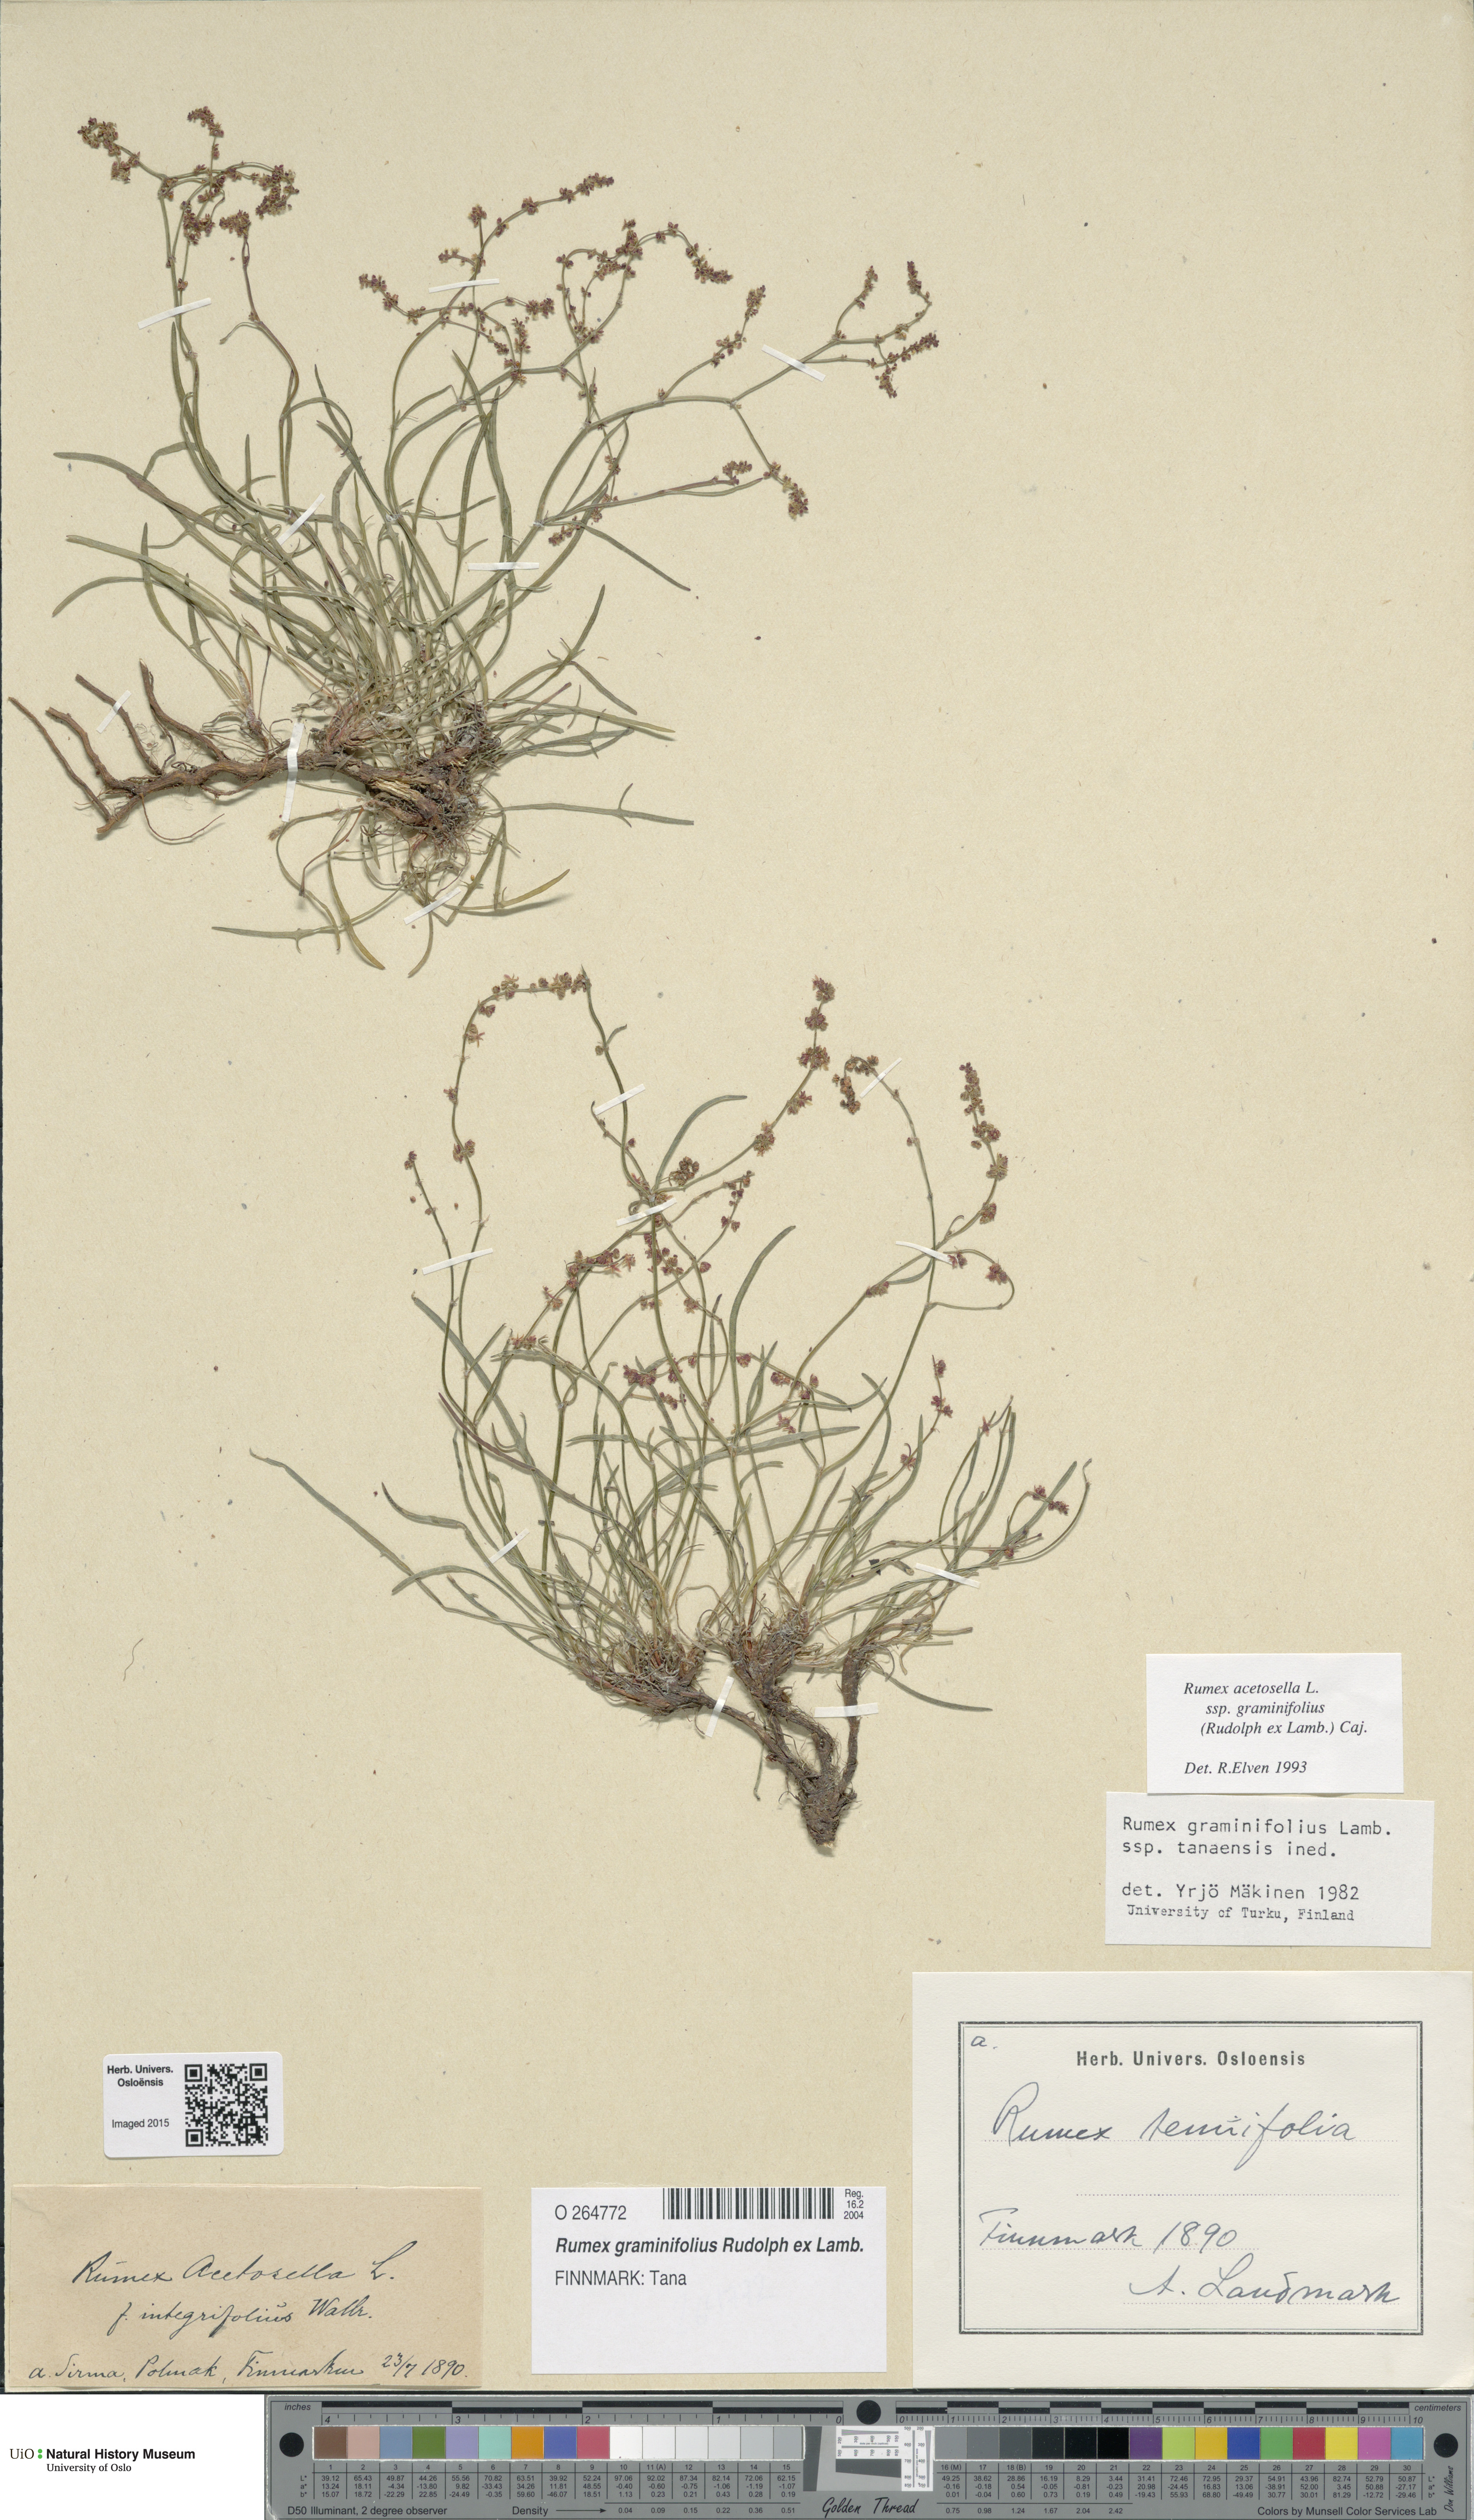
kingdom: Plantae
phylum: Tracheophyta
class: Magnoliopsida
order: Caryophyllales
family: Polygonaceae
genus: Rumex
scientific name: Rumex graminifolius
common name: Grass-leaved sorrel
